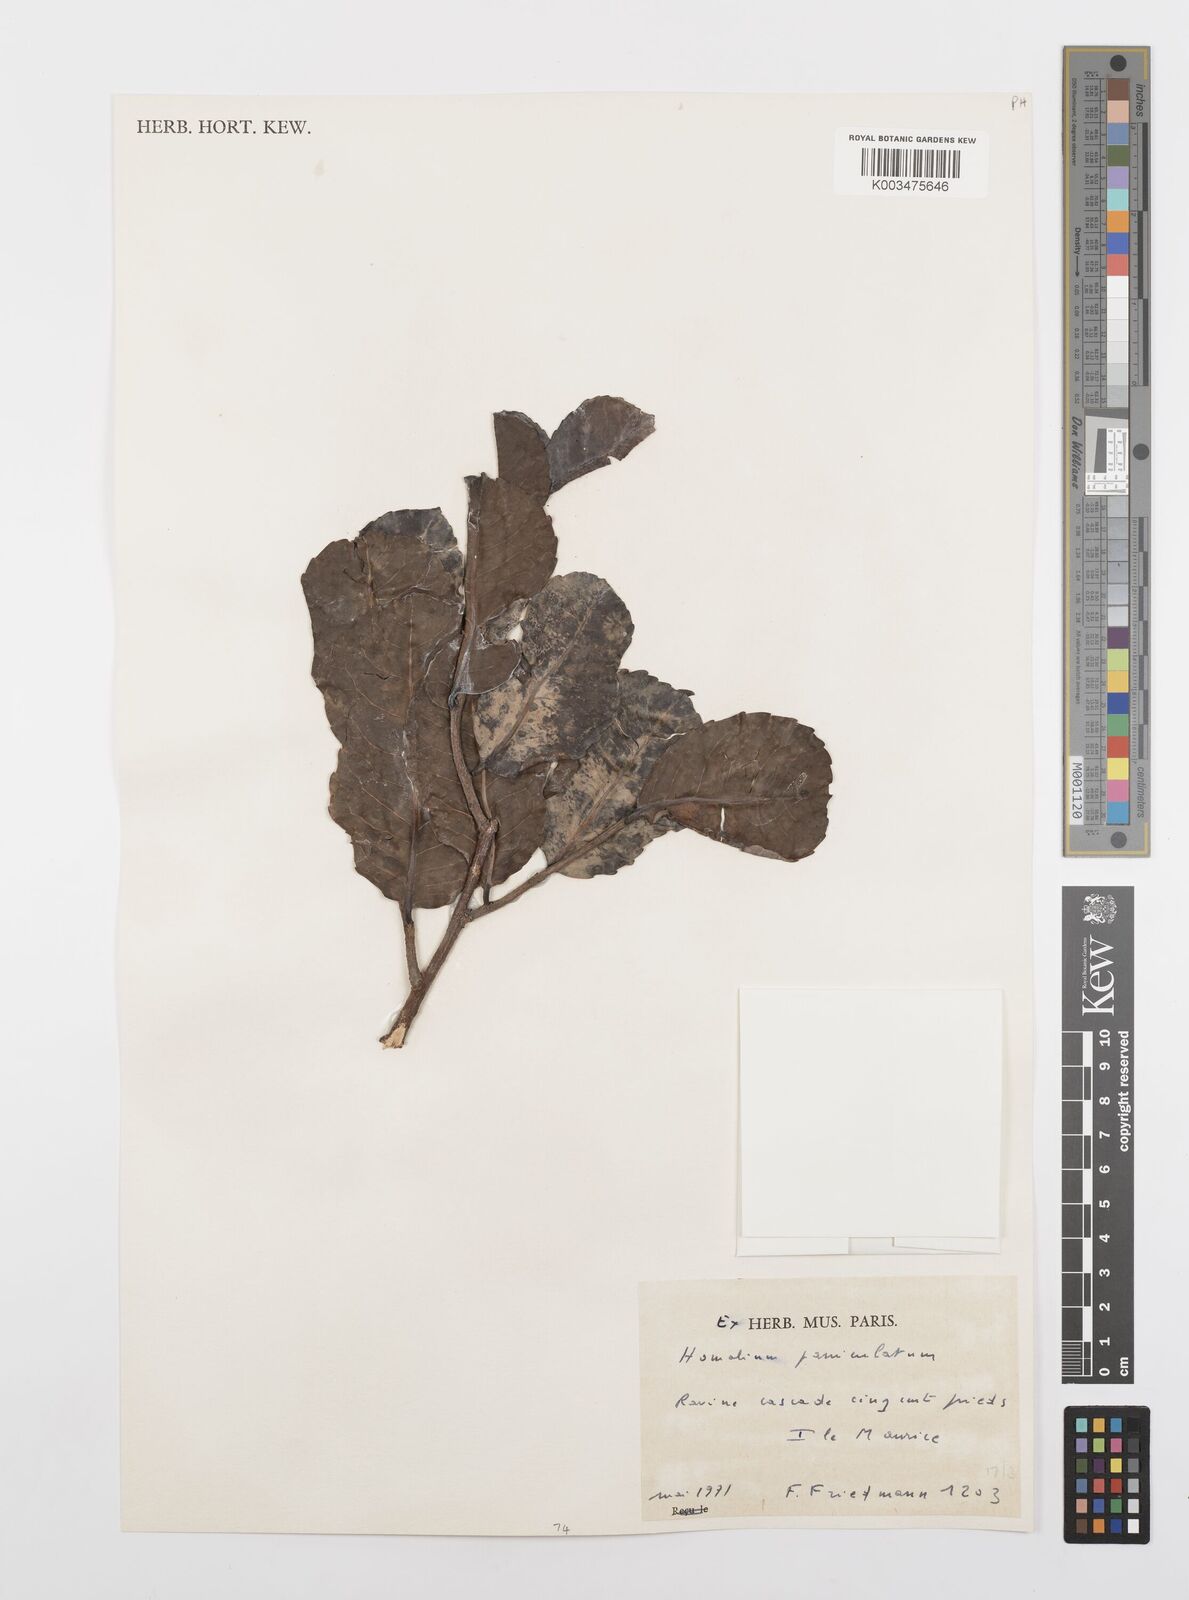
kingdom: Plantae
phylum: Tracheophyta
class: Magnoliopsida
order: Malpighiales
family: Salicaceae
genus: Homalium
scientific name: Homalium erianthum
